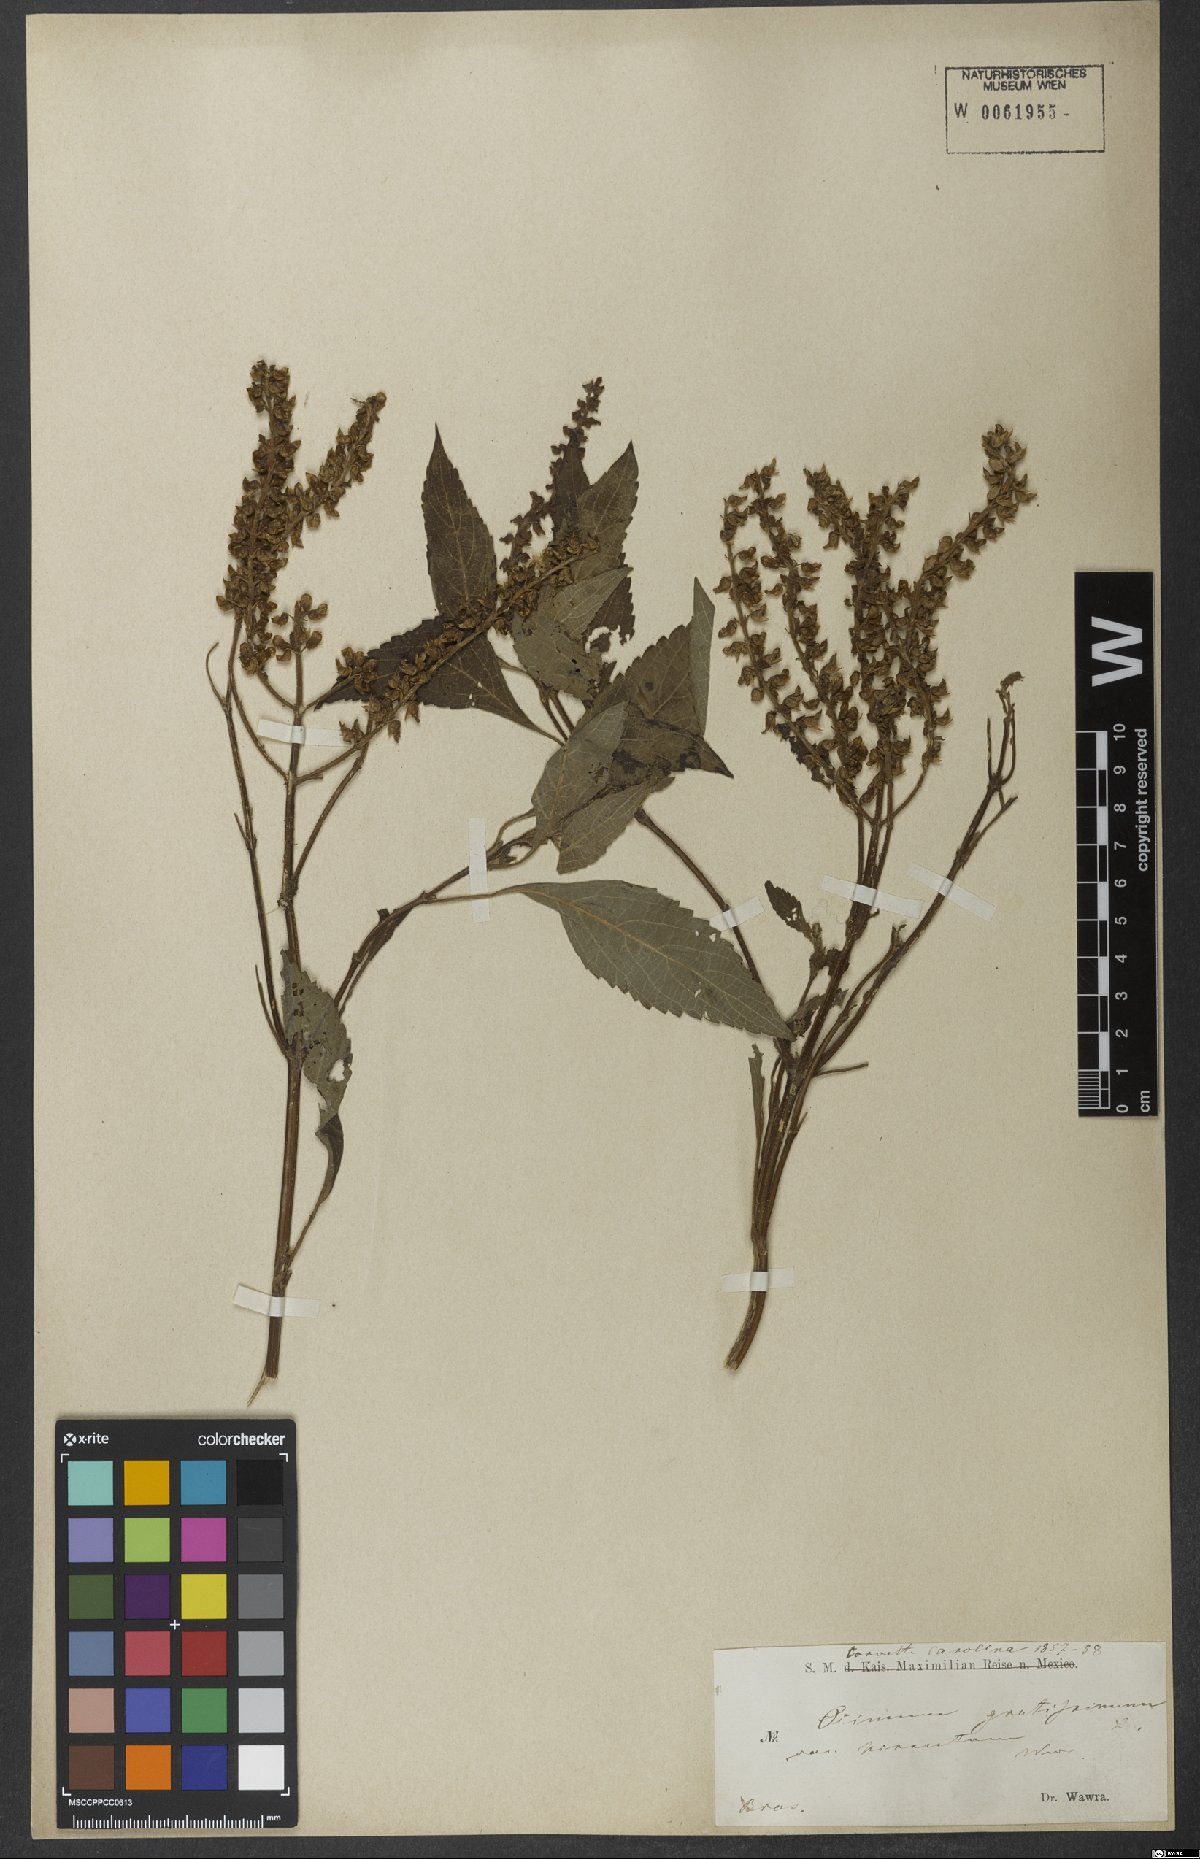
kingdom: Plantae
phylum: Tracheophyta
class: Magnoliopsida
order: Lamiales
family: Lamiaceae
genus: Ocimum
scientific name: Ocimum gratissimum
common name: African basil
